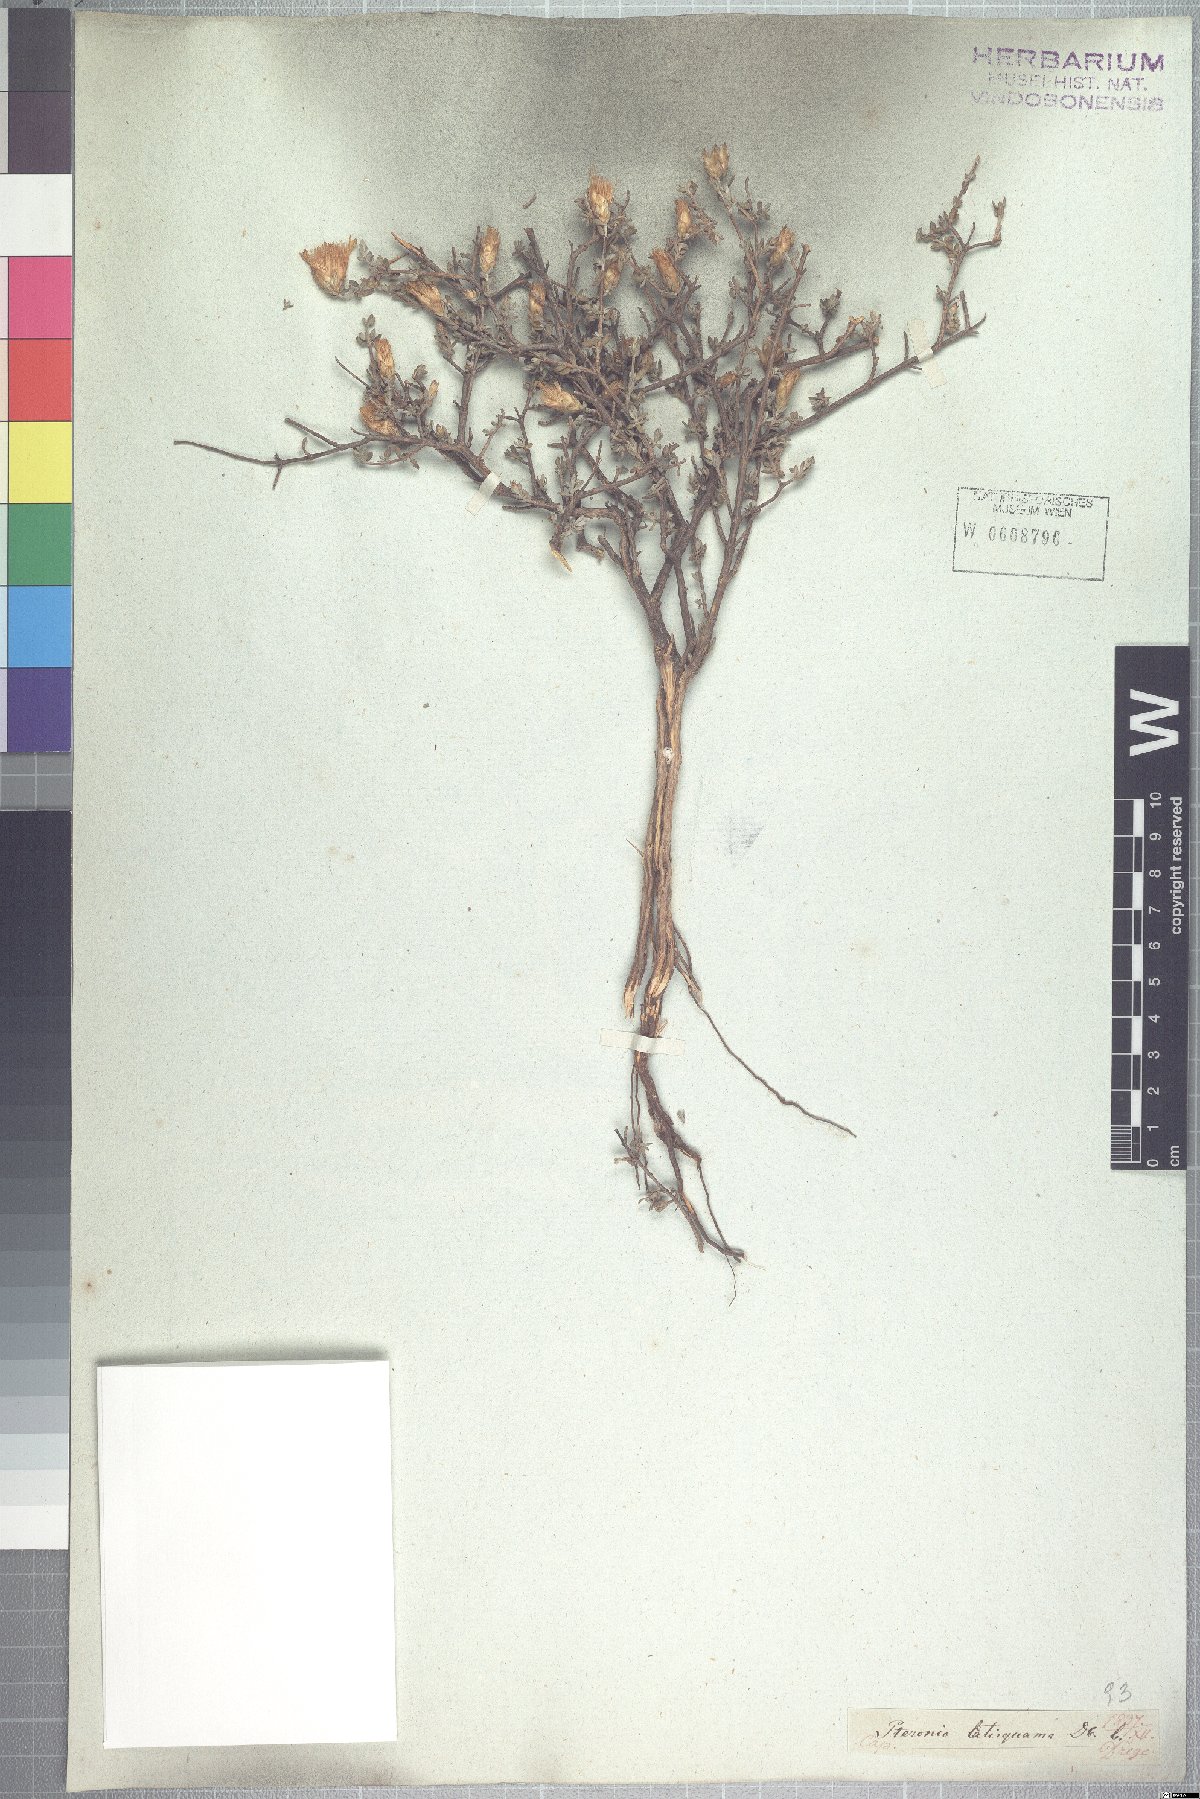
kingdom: Plantae
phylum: Tracheophyta
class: Magnoliopsida
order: Asterales
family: Asteraceae
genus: Pteronia
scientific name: Pteronia glauca
